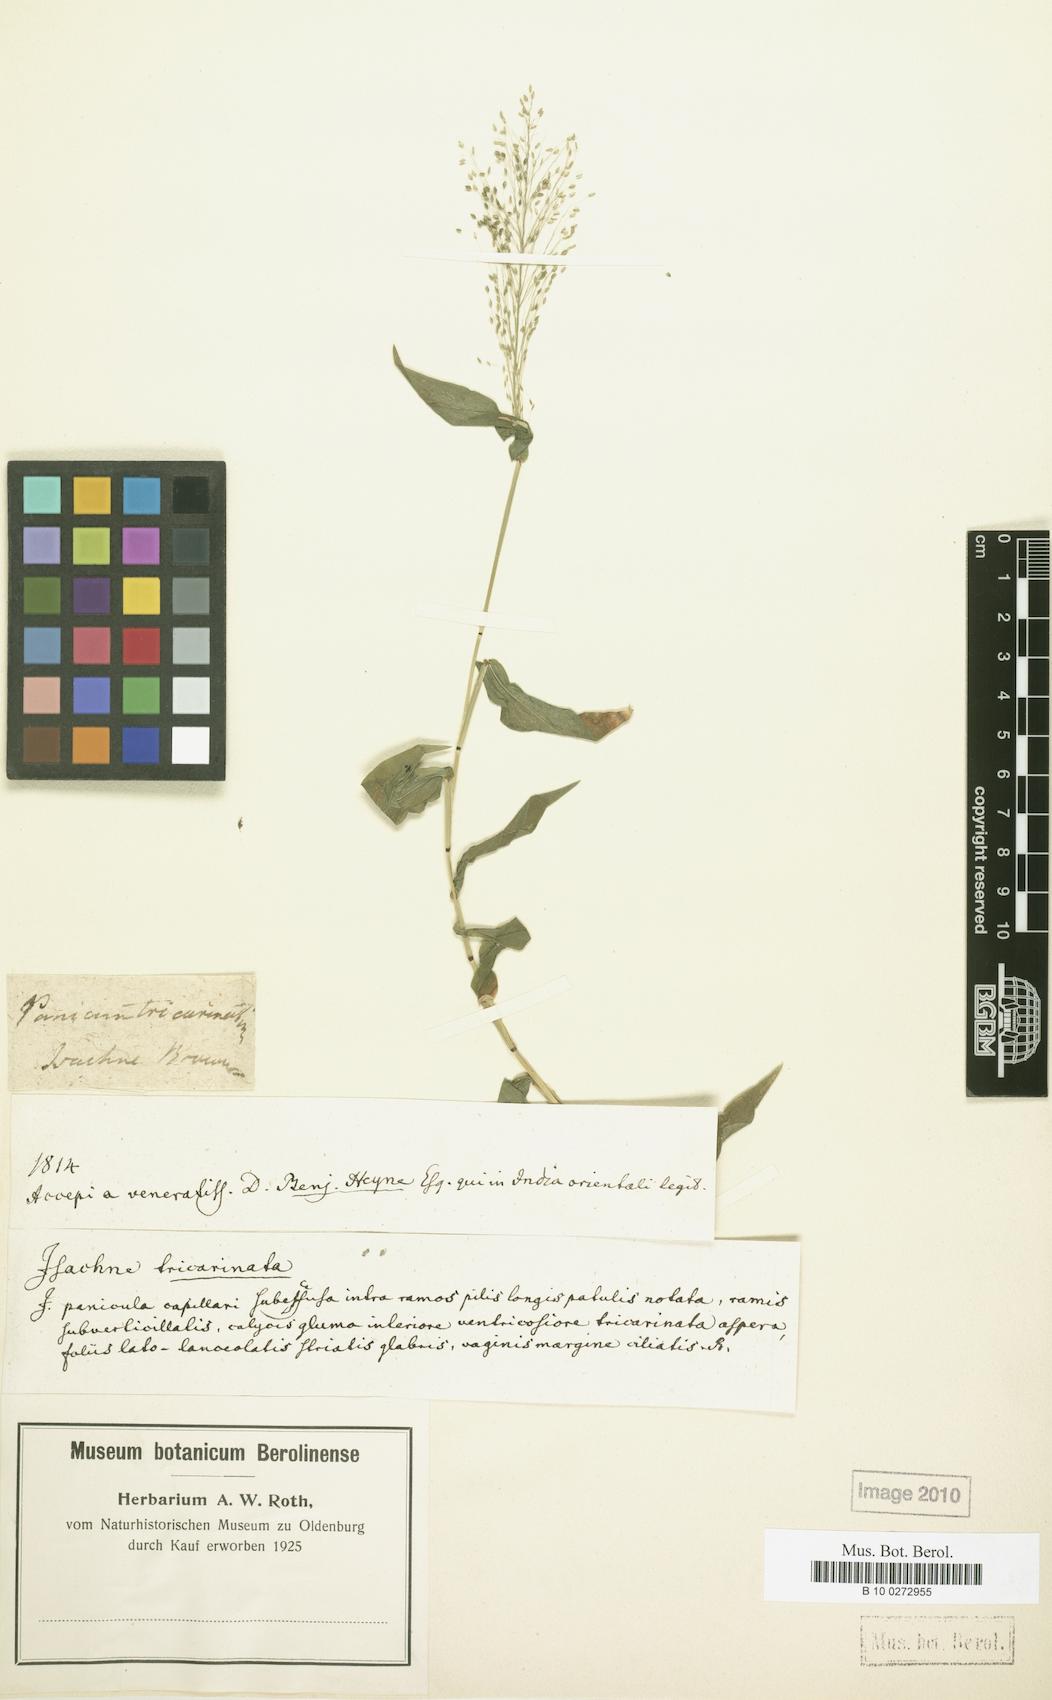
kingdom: Plantae
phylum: Tracheophyta
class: Liliopsida
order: Poales
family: Poaceae
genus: Panicum
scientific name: Panicum brevifolium
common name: Shortleaf panic grass
